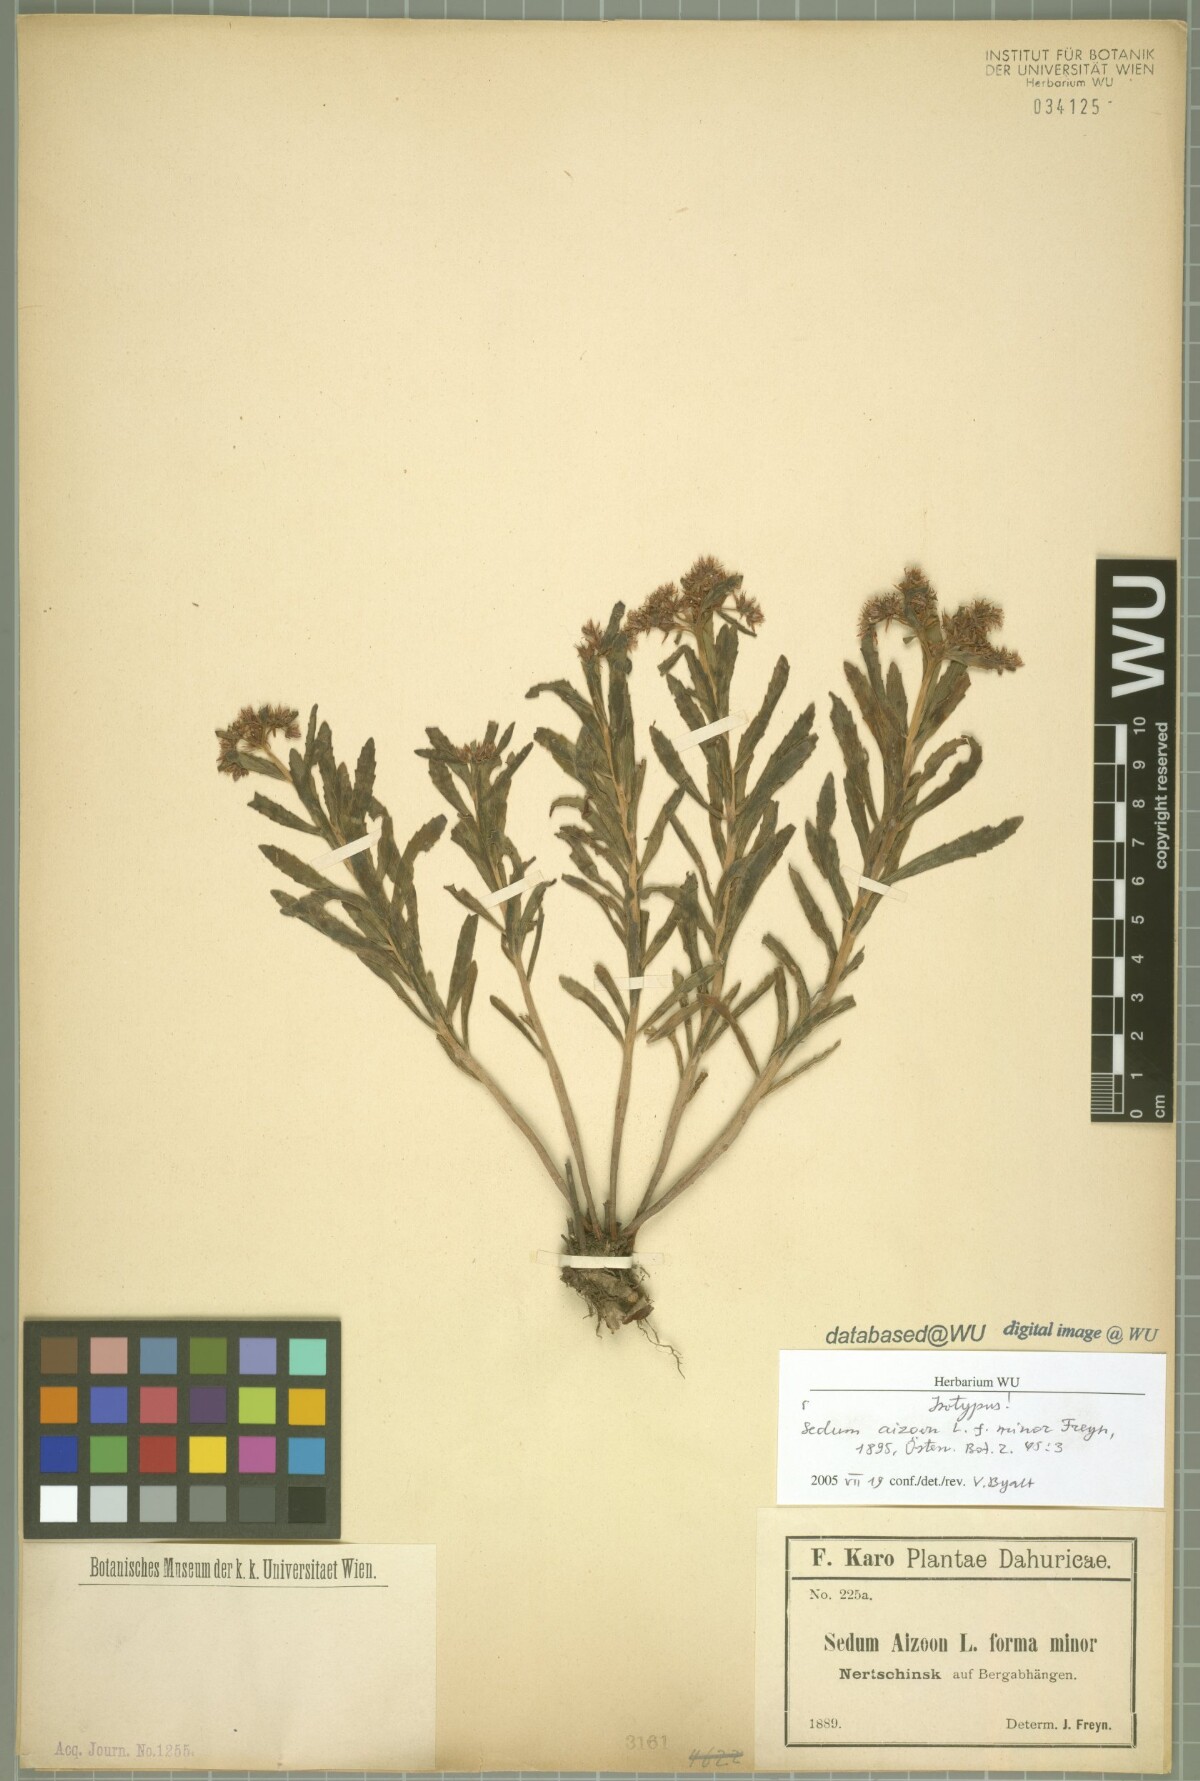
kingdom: Plantae
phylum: Tracheophyta
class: Magnoliopsida
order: Saxifragales
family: Crassulaceae
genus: Sedum
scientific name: Sedum aizoon
